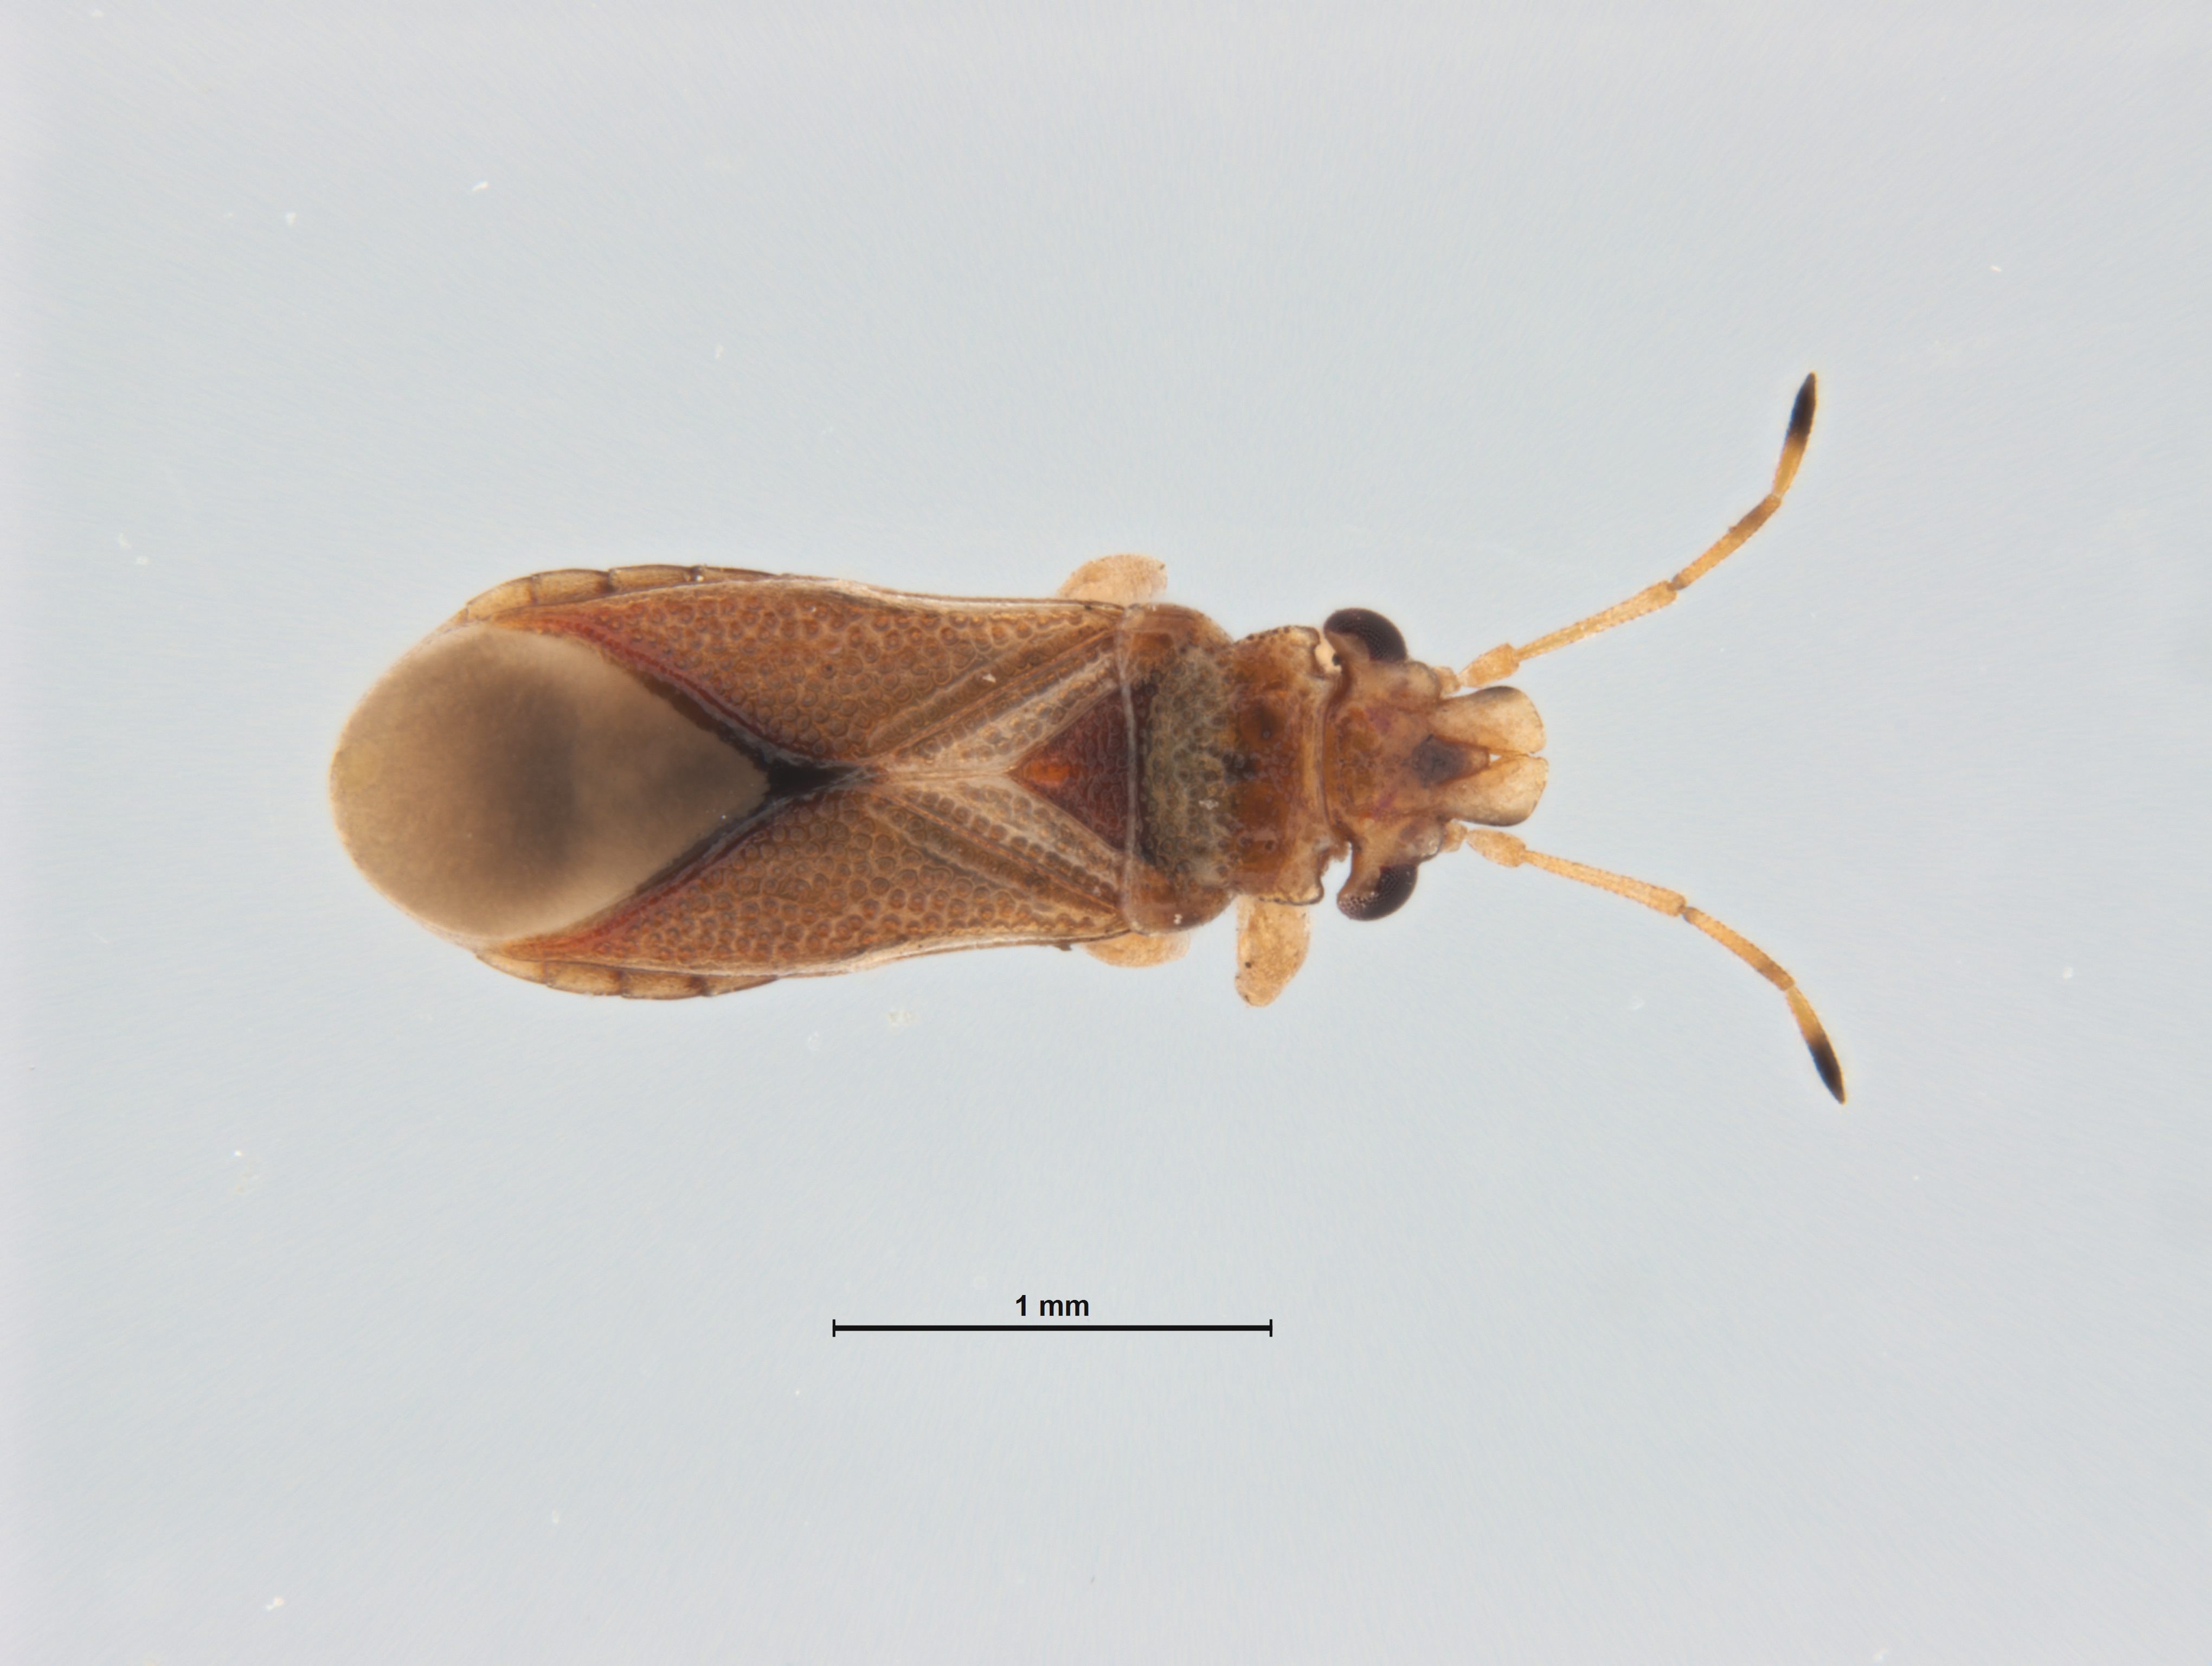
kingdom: Animalia
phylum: Arthropoda
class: Insecta
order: Hemiptera
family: Thaumastocoridae
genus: Thaumastocoris
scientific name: Thaumastocoris peregrinus
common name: Bronze bug
